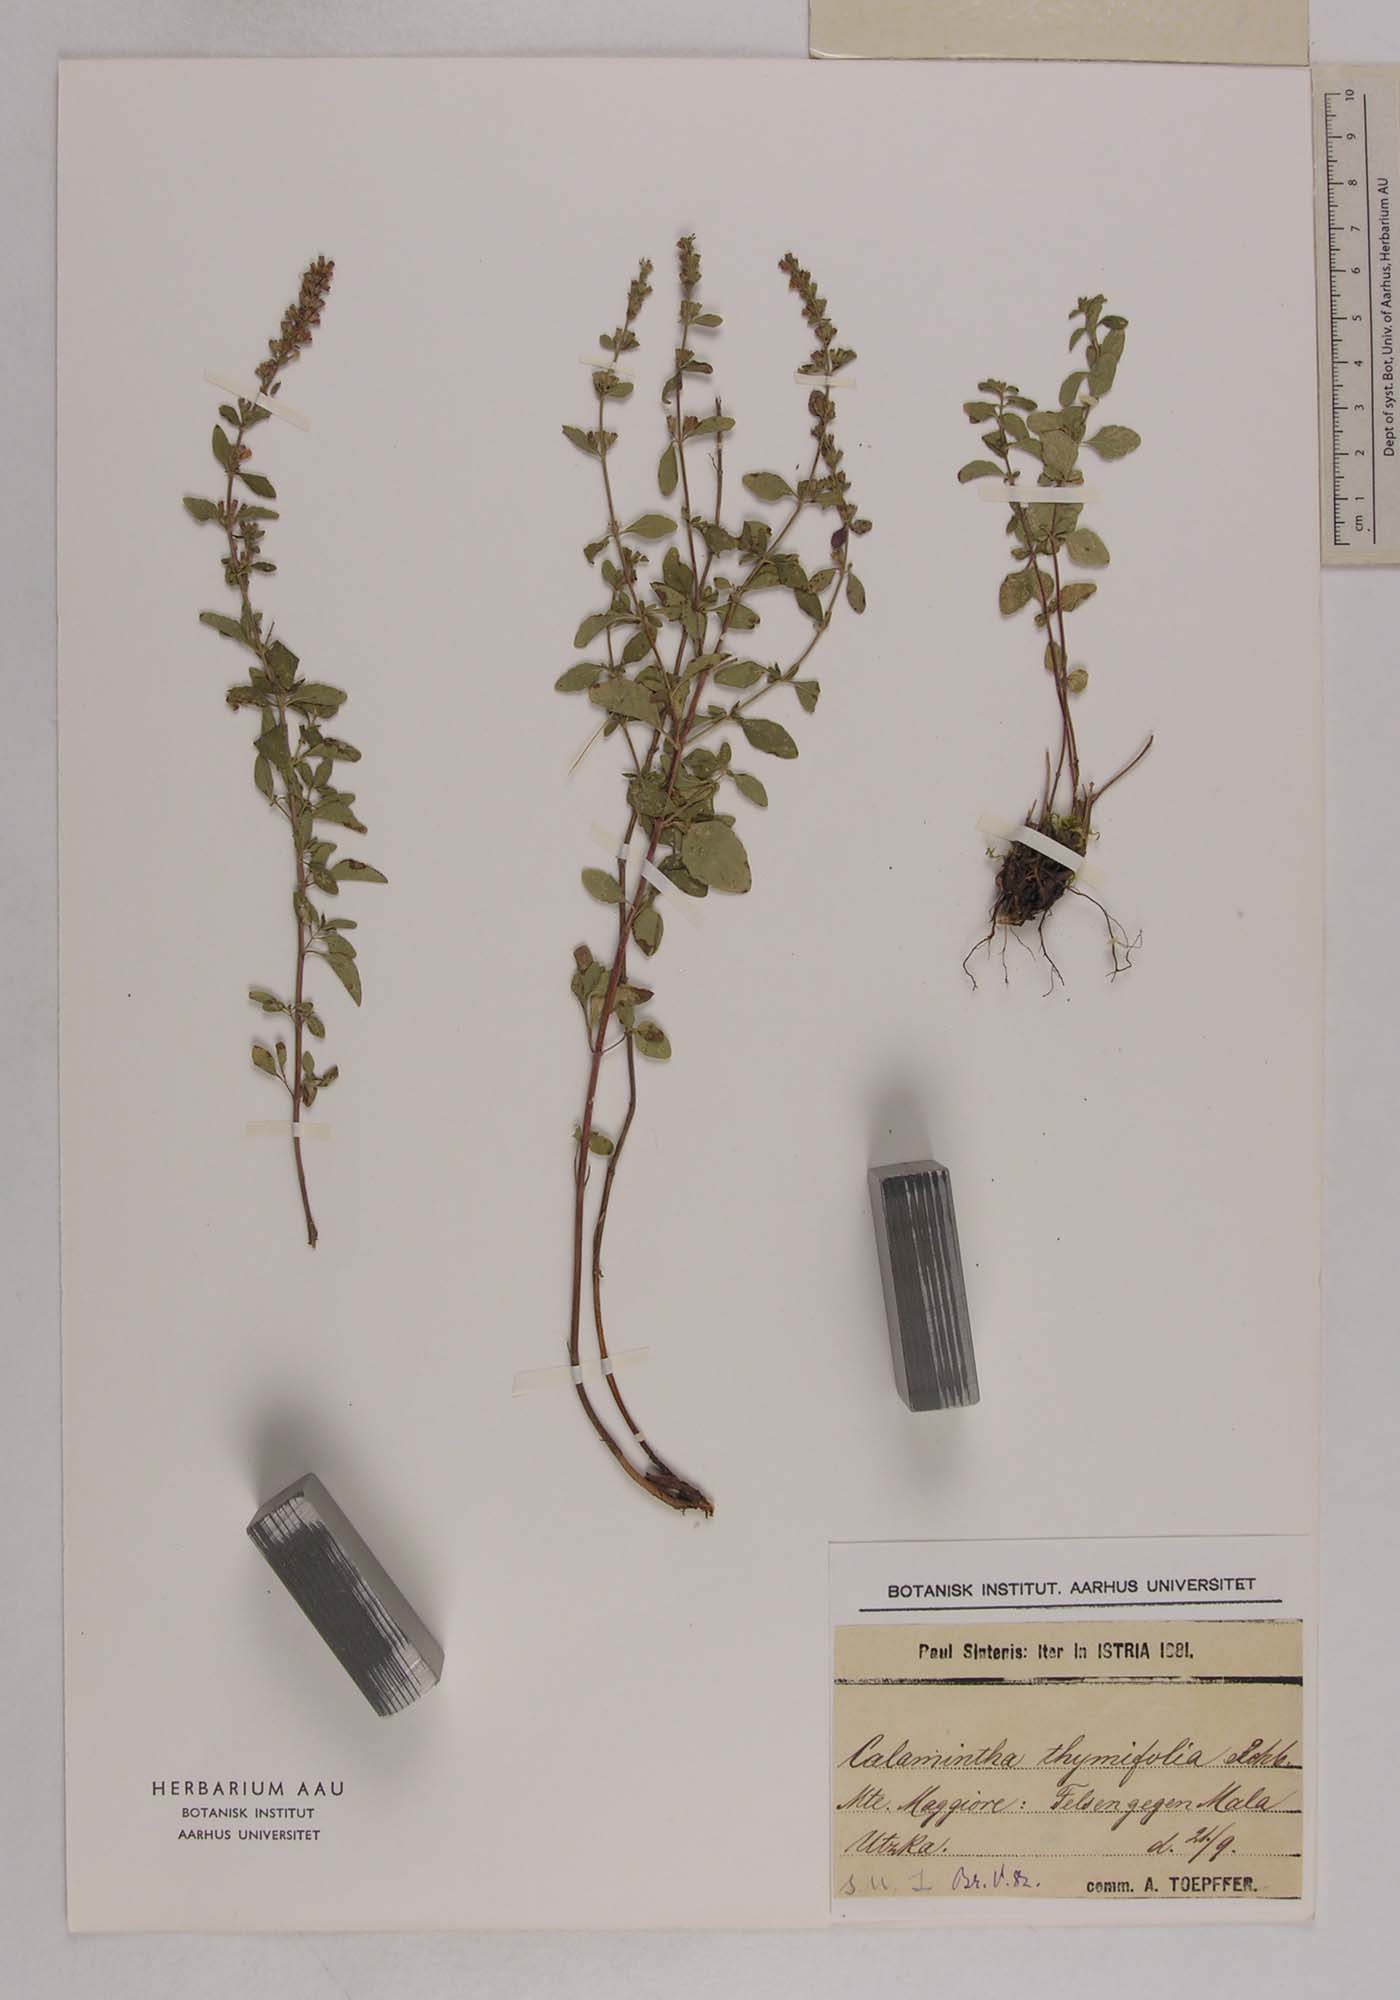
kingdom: Plantae
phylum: Tracheophyta
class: Magnoliopsida
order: Lamiales
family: Lamiaceae
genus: Clinopodium
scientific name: Clinopodium album
